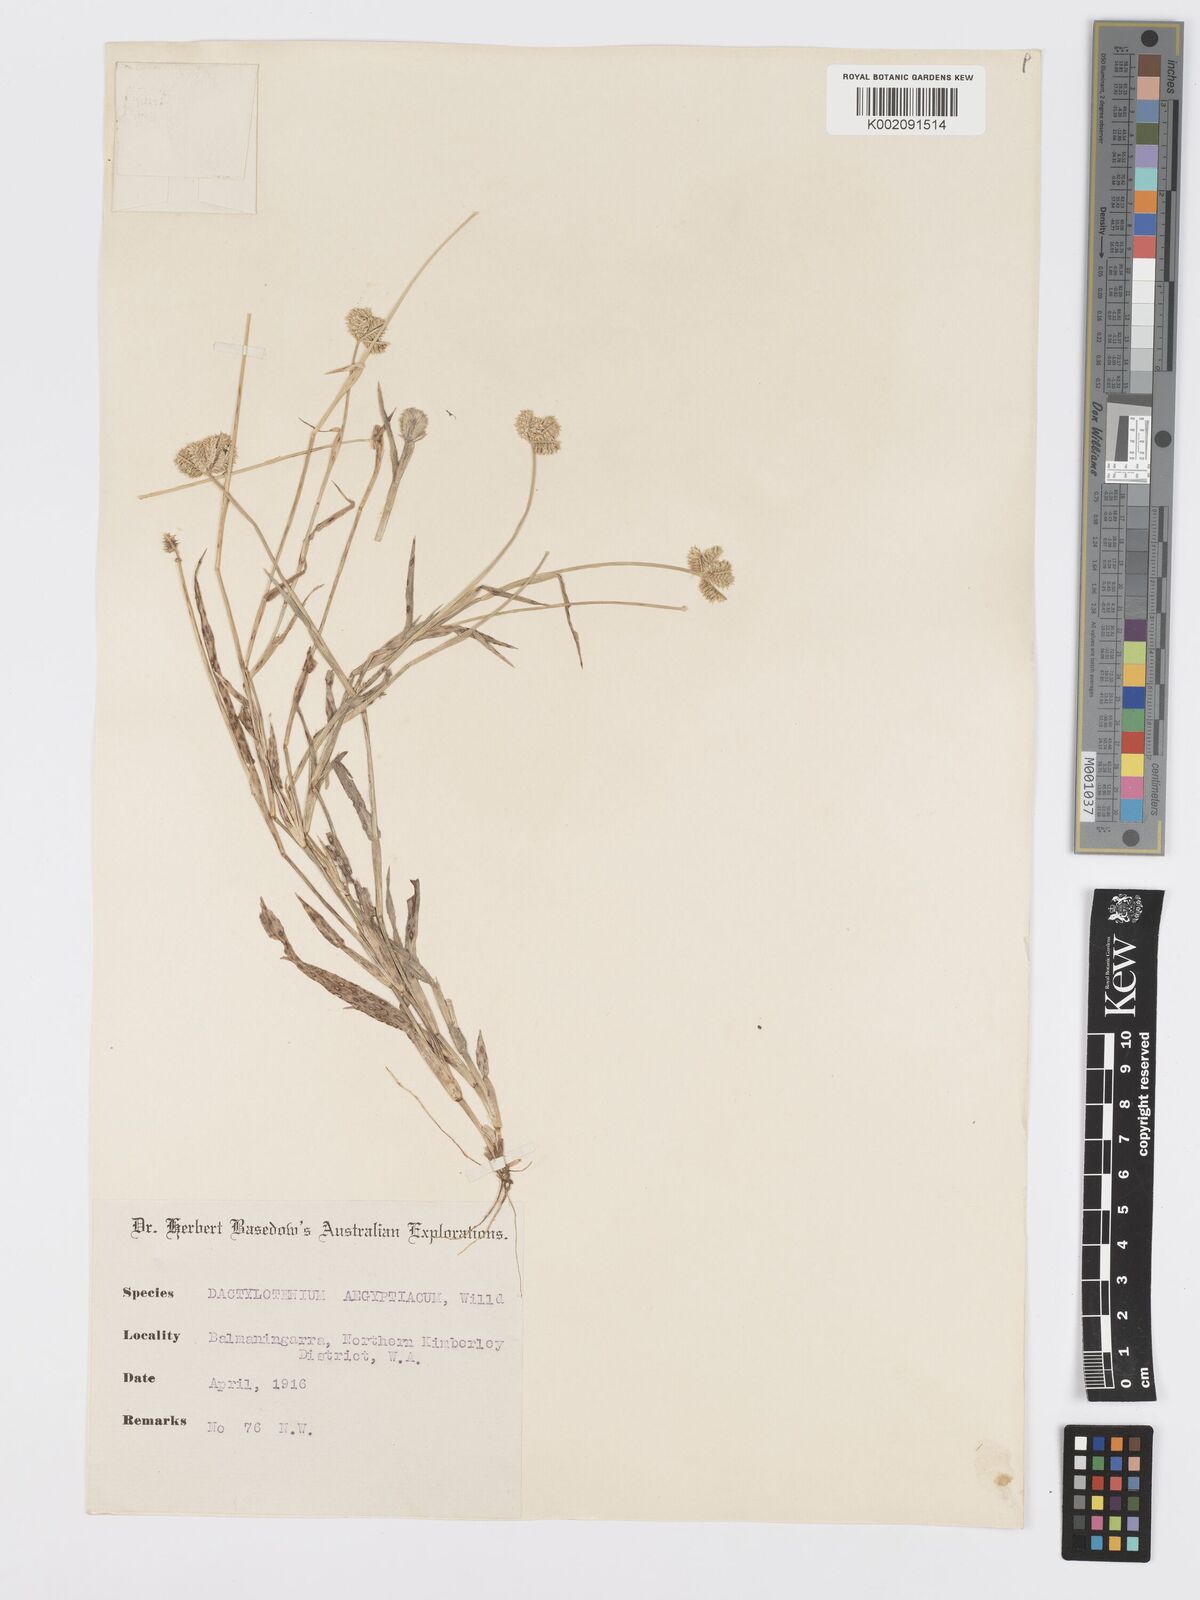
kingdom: Plantae
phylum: Tracheophyta
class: Liliopsida
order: Poales
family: Poaceae
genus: Dactyloctenium
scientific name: Dactyloctenium radulans
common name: Button-grass
